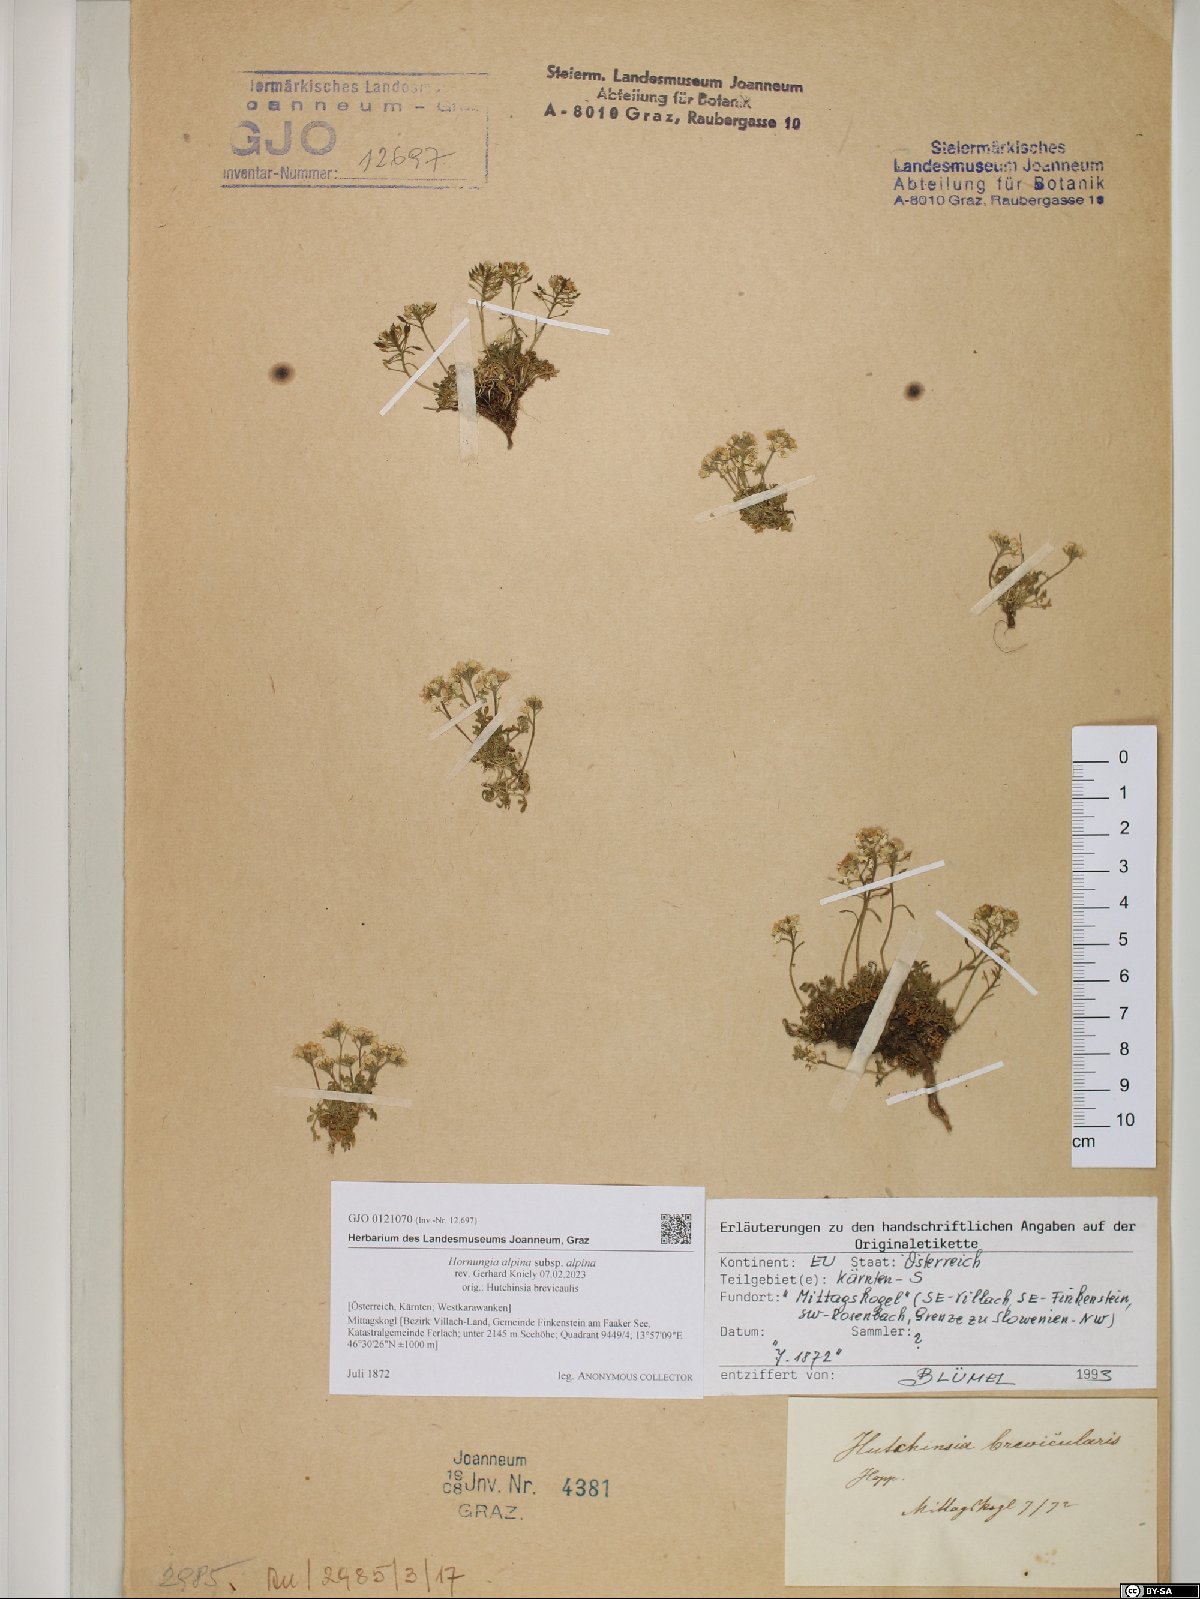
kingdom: Plantae
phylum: Tracheophyta
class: Magnoliopsida
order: Brassicales
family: Brassicaceae
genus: Hornungia
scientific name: Hornungia alpina
